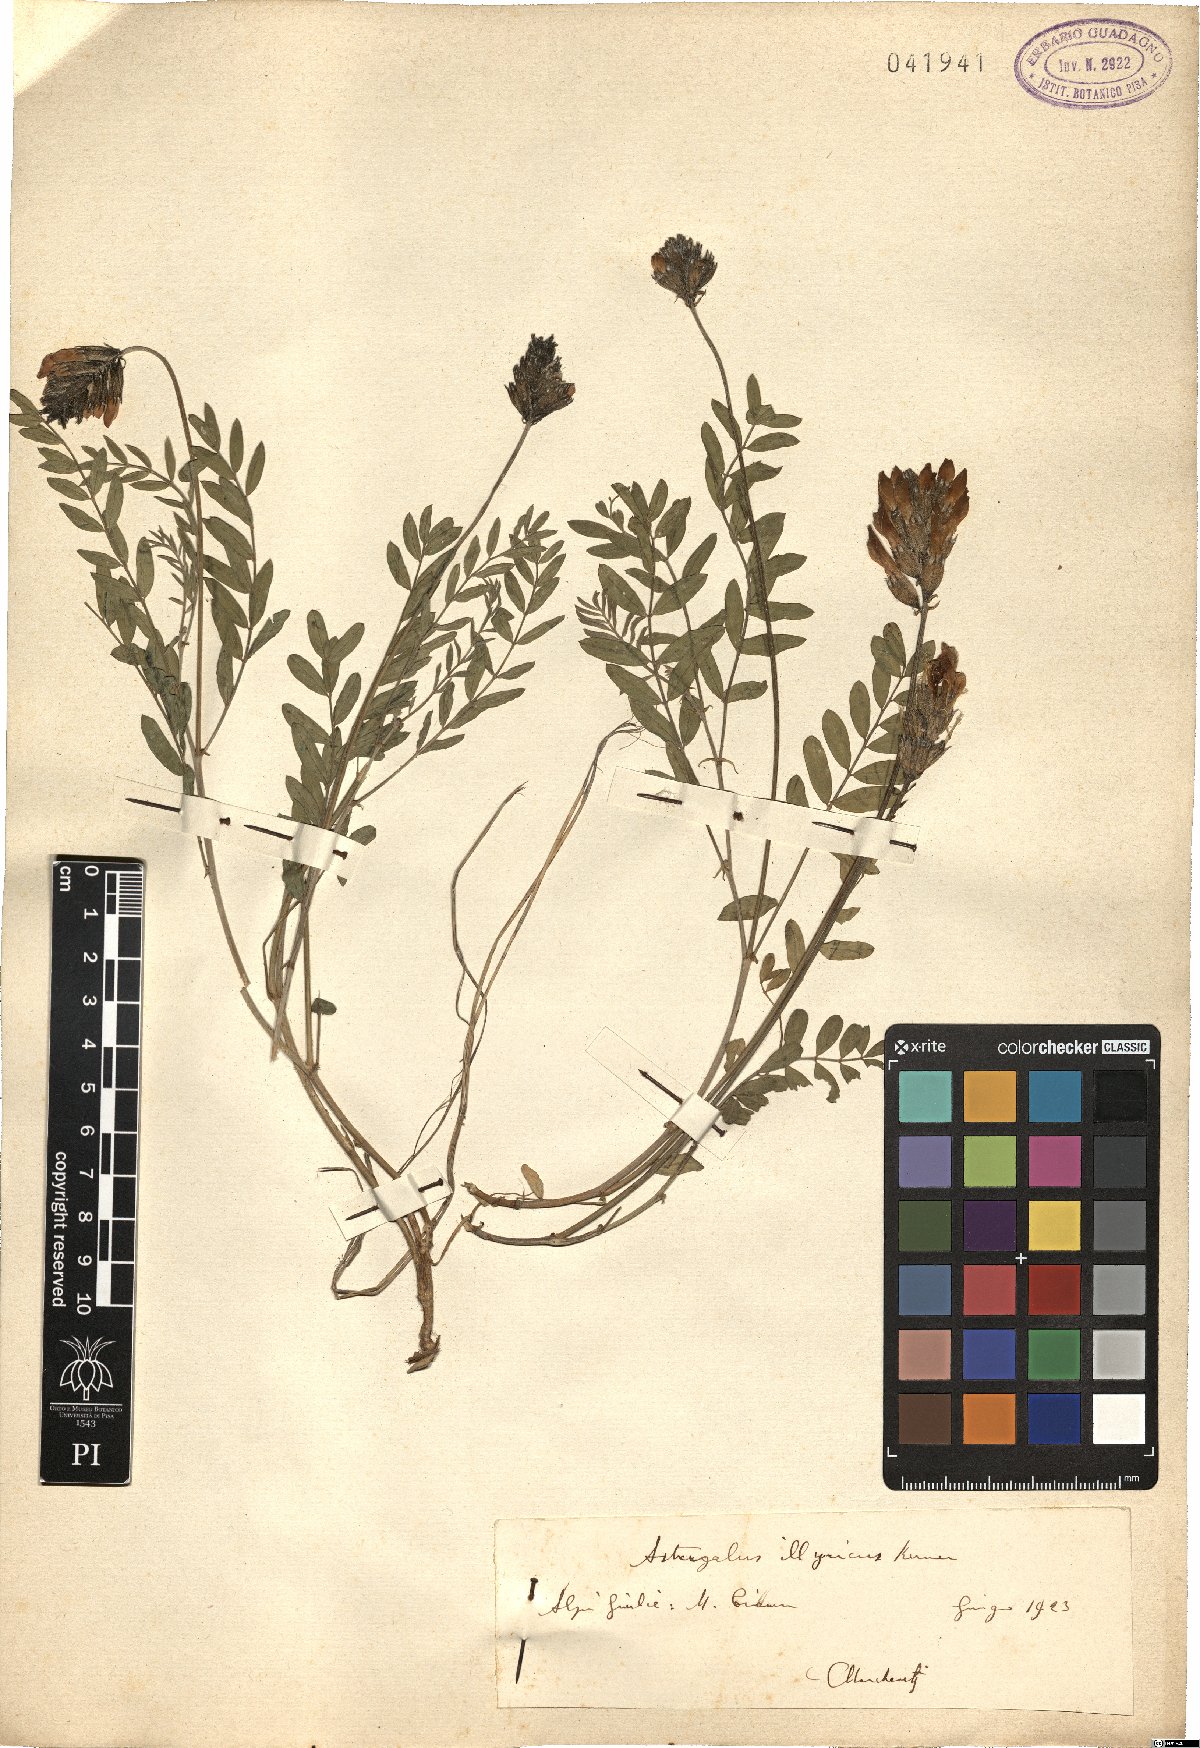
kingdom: Plantae
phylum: Tracheophyta
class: Magnoliopsida
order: Fabales
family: Fabaceae
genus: Astragalus
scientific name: Astragalus monspessulanus
